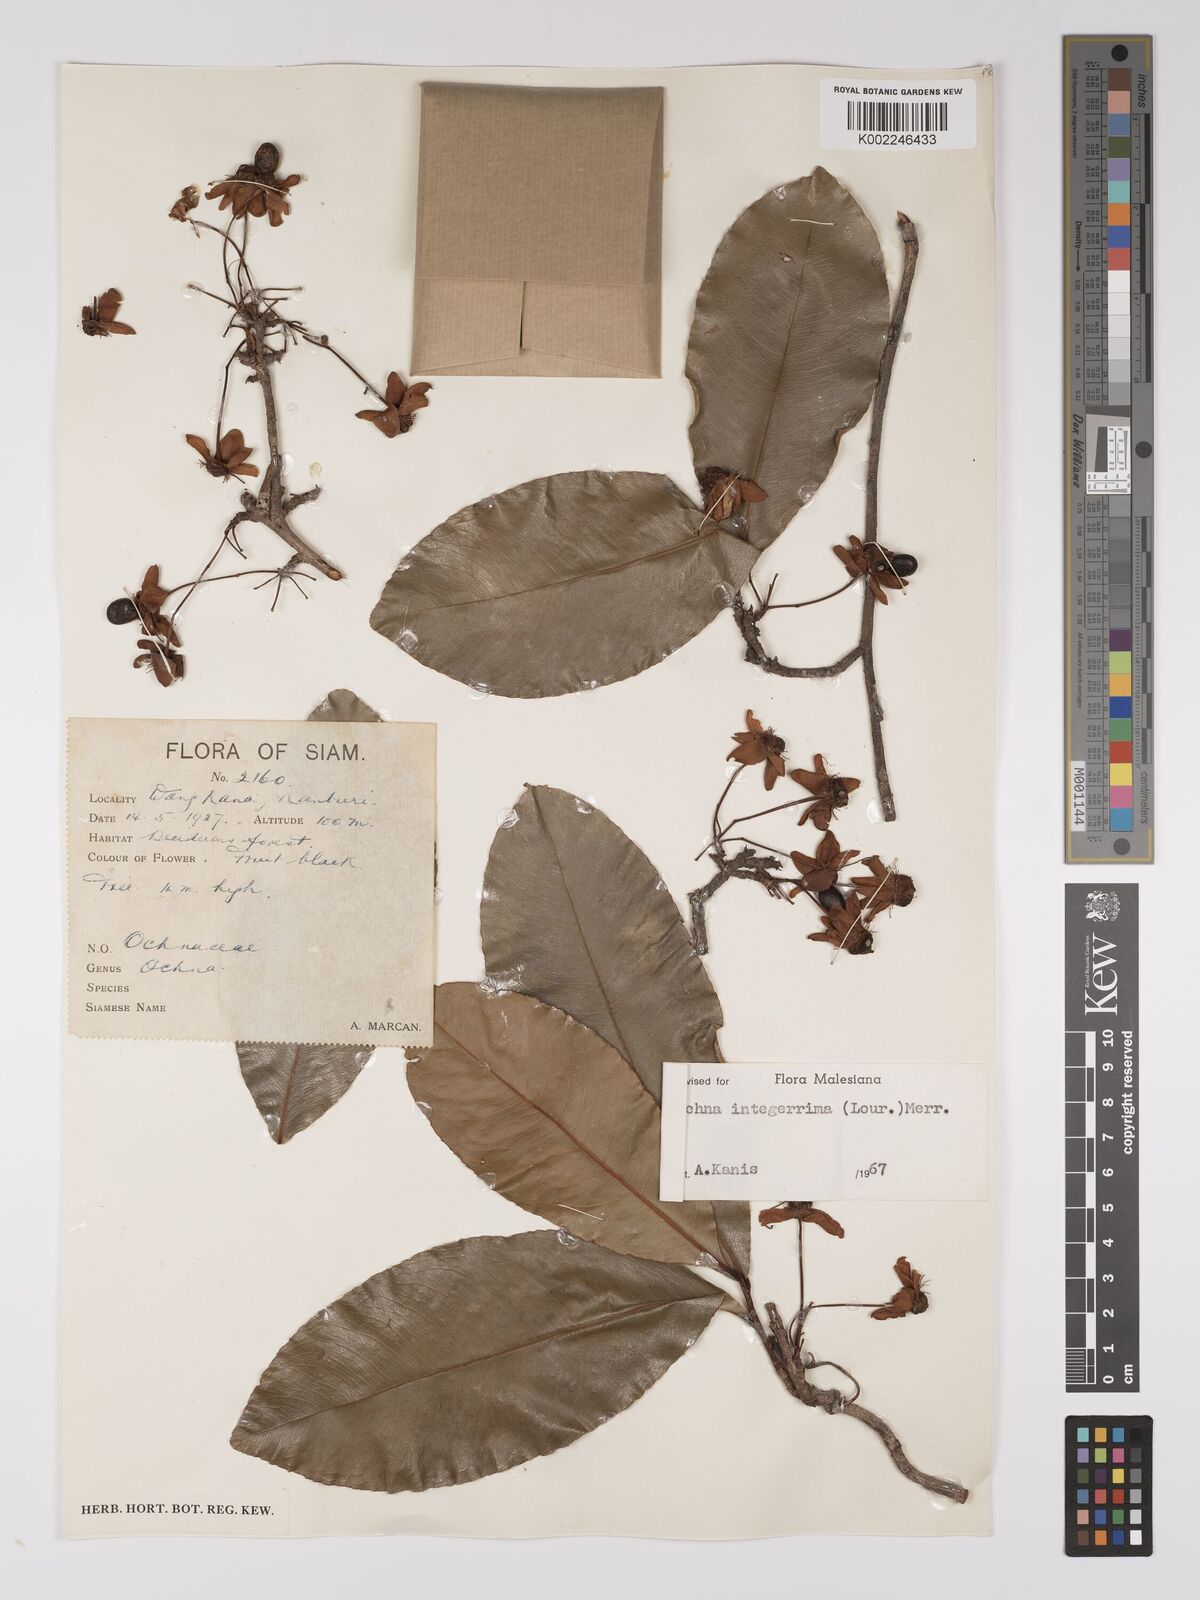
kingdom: Plantae
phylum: Tracheophyta
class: Magnoliopsida
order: Malpighiales
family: Ochnaceae
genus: Ochna
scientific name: Ochna integerrima
